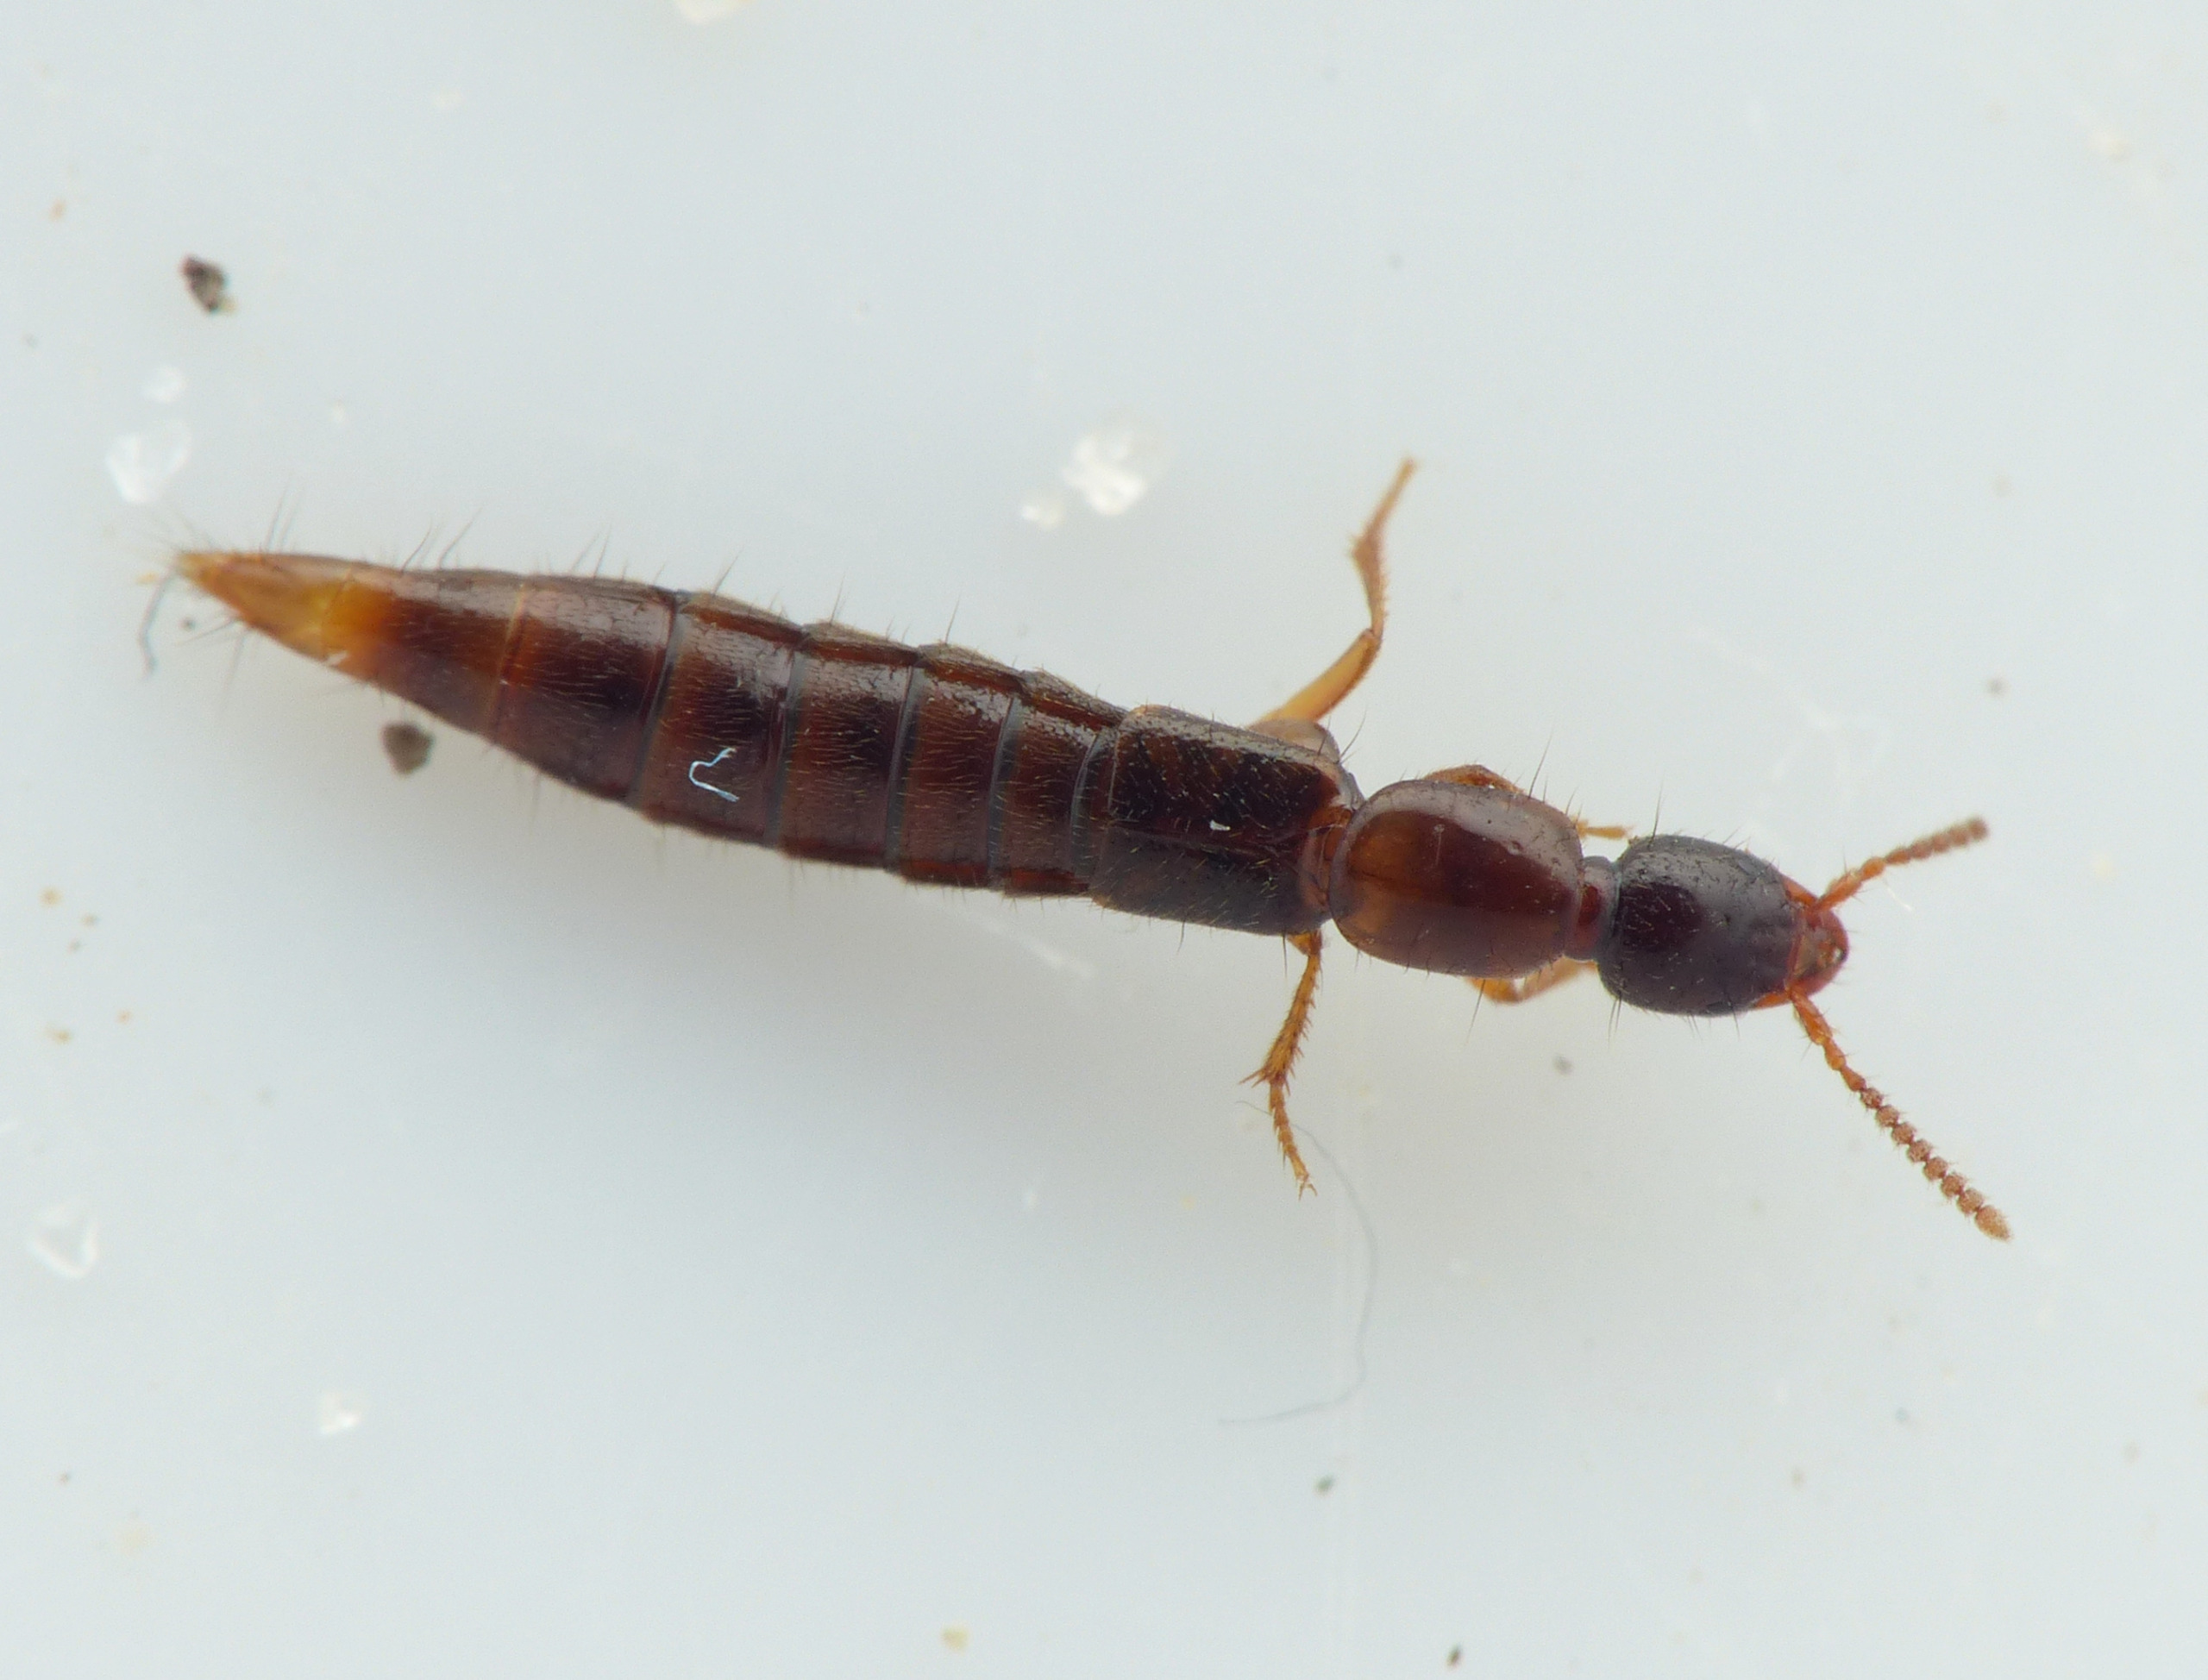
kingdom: Animalia
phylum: Arthropoda
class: Insecta
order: Coleoptera
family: Staphylinidae
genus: Othius
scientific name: Othius subuliformis
